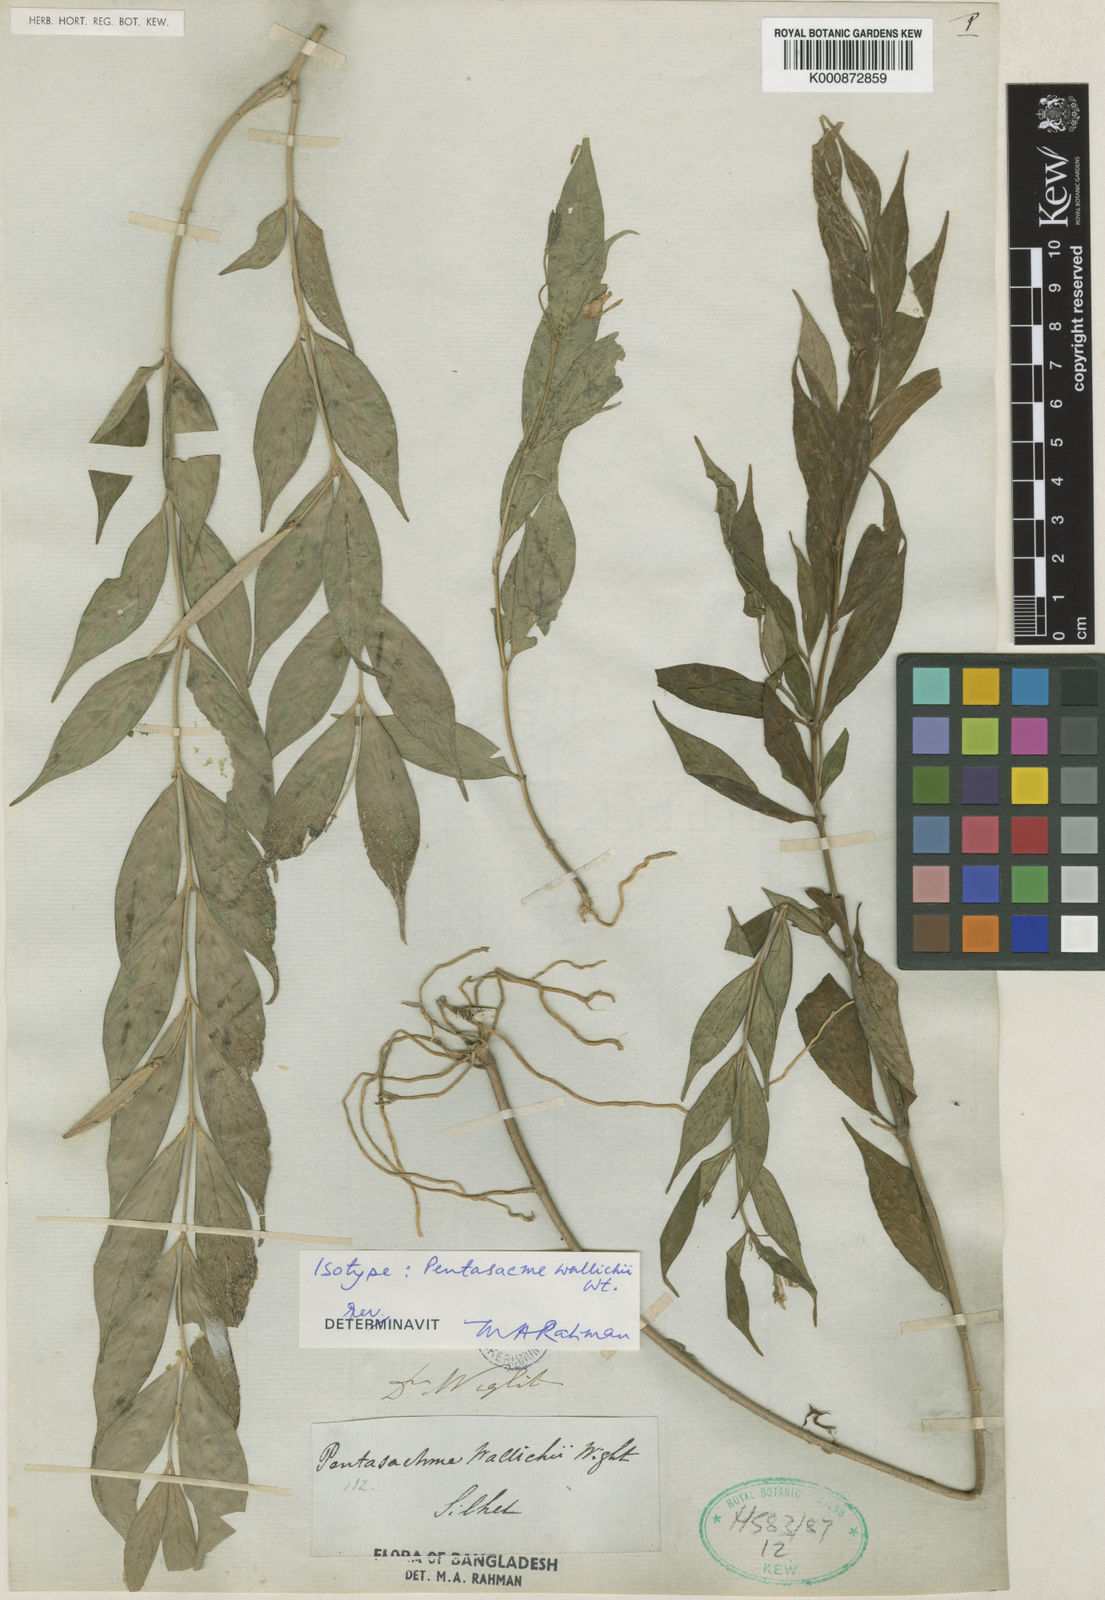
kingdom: Plantae
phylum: Tracheophyta
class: Magnoliopsida
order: Gentianales
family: Apocynaceae
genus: Pentasachme
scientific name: Pentasachme wallichii
